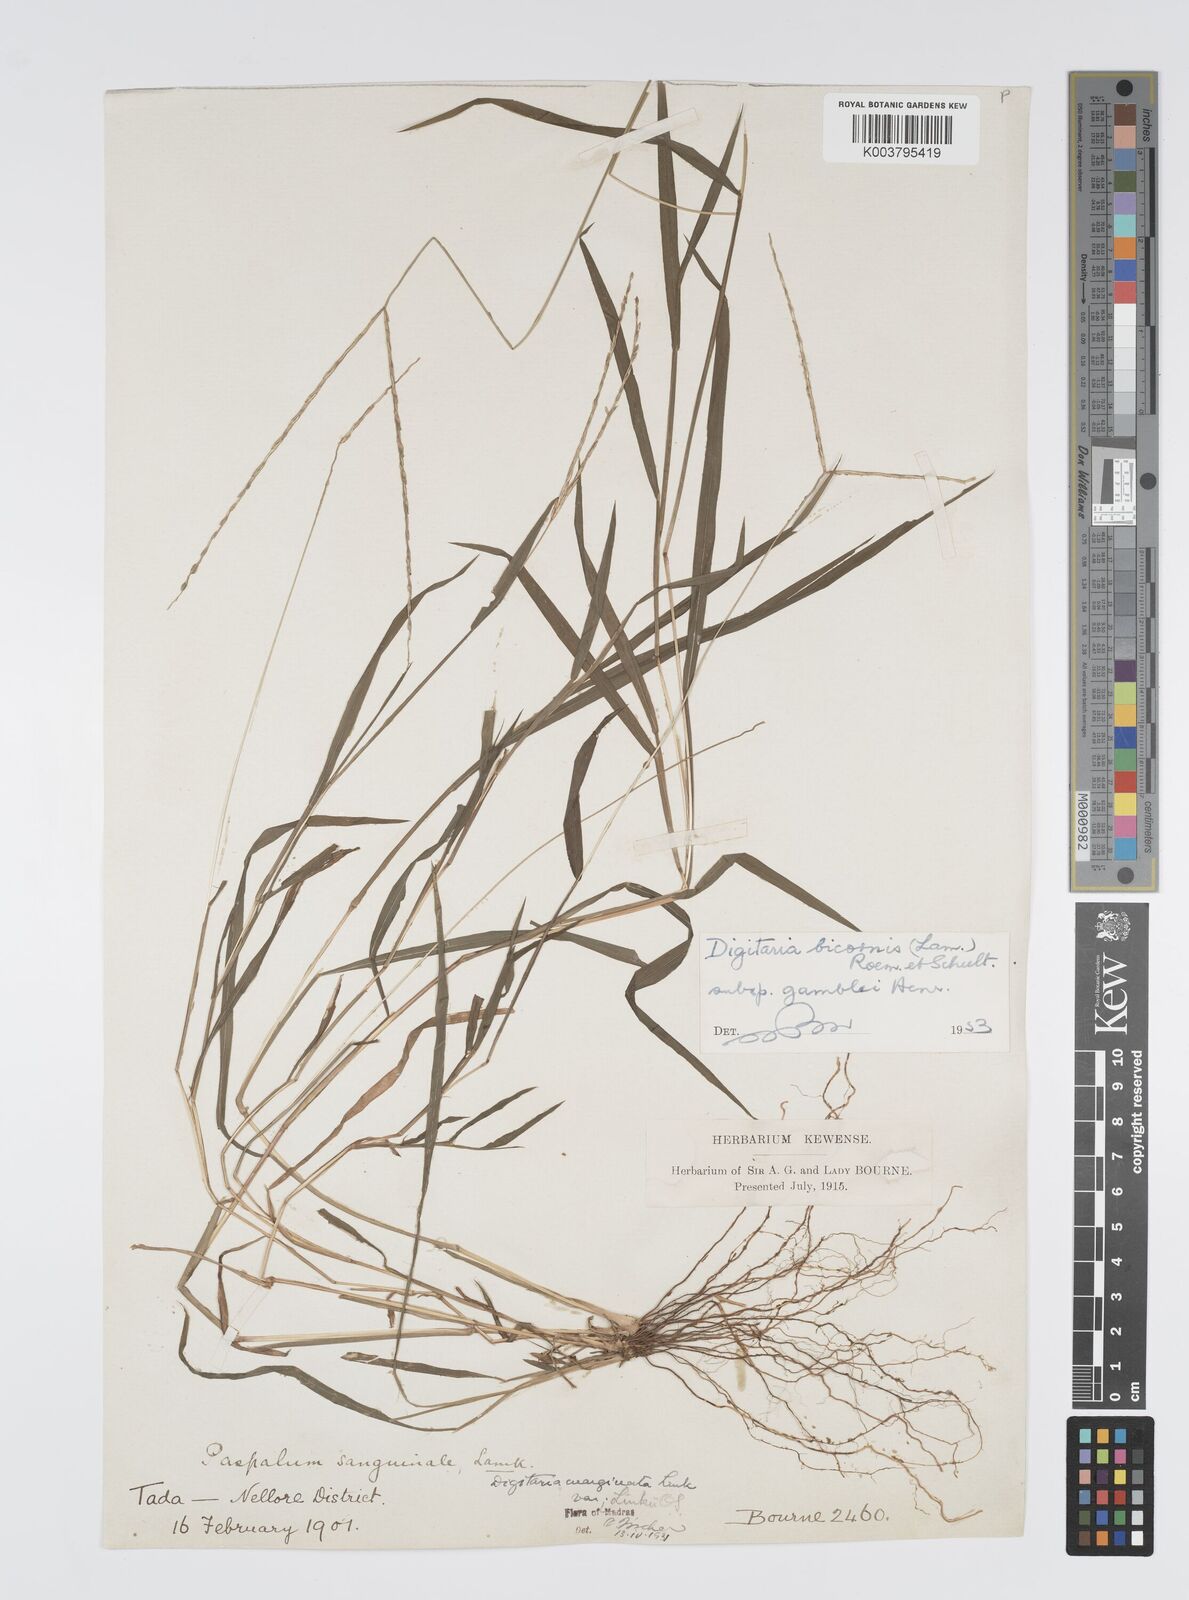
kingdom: Plantae
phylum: Tracheophyta
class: Liliopsida
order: Poales
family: Poaceae
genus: Digitaria
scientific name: Digitaria bicornis
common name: Asian crabgrass
